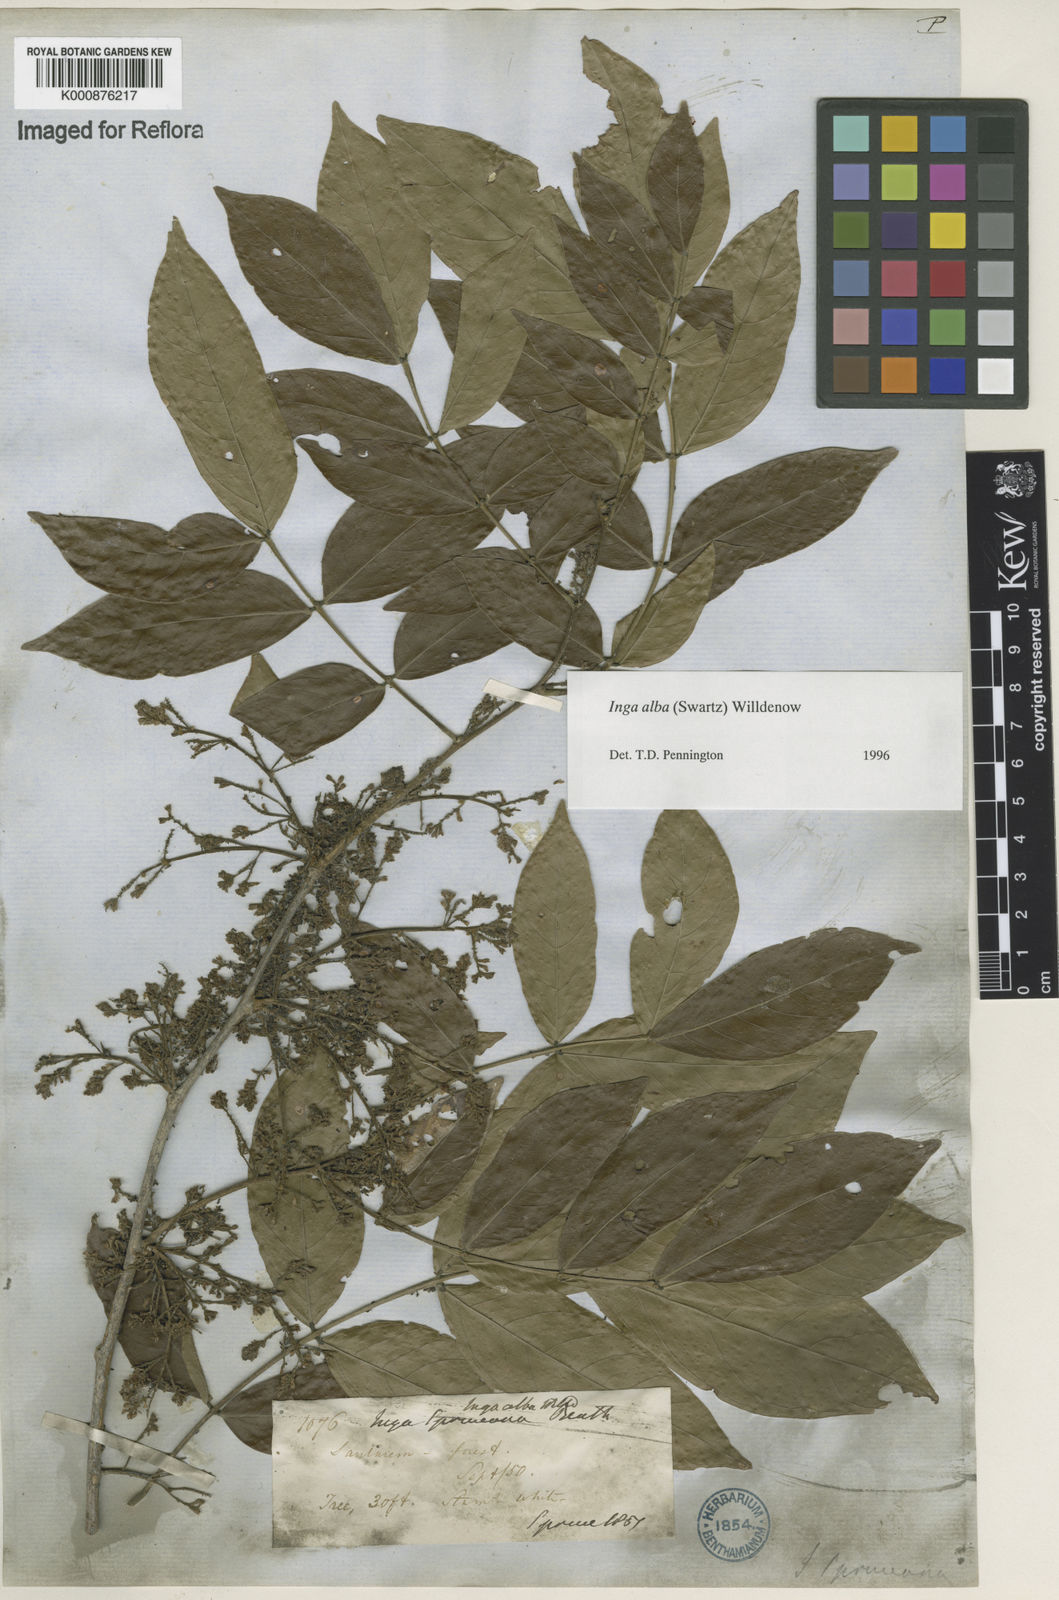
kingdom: Plantae
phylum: Tracheophyta
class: Magnoliopsida
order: Fabales
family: Fabaceae
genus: Inga
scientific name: Inga alba
